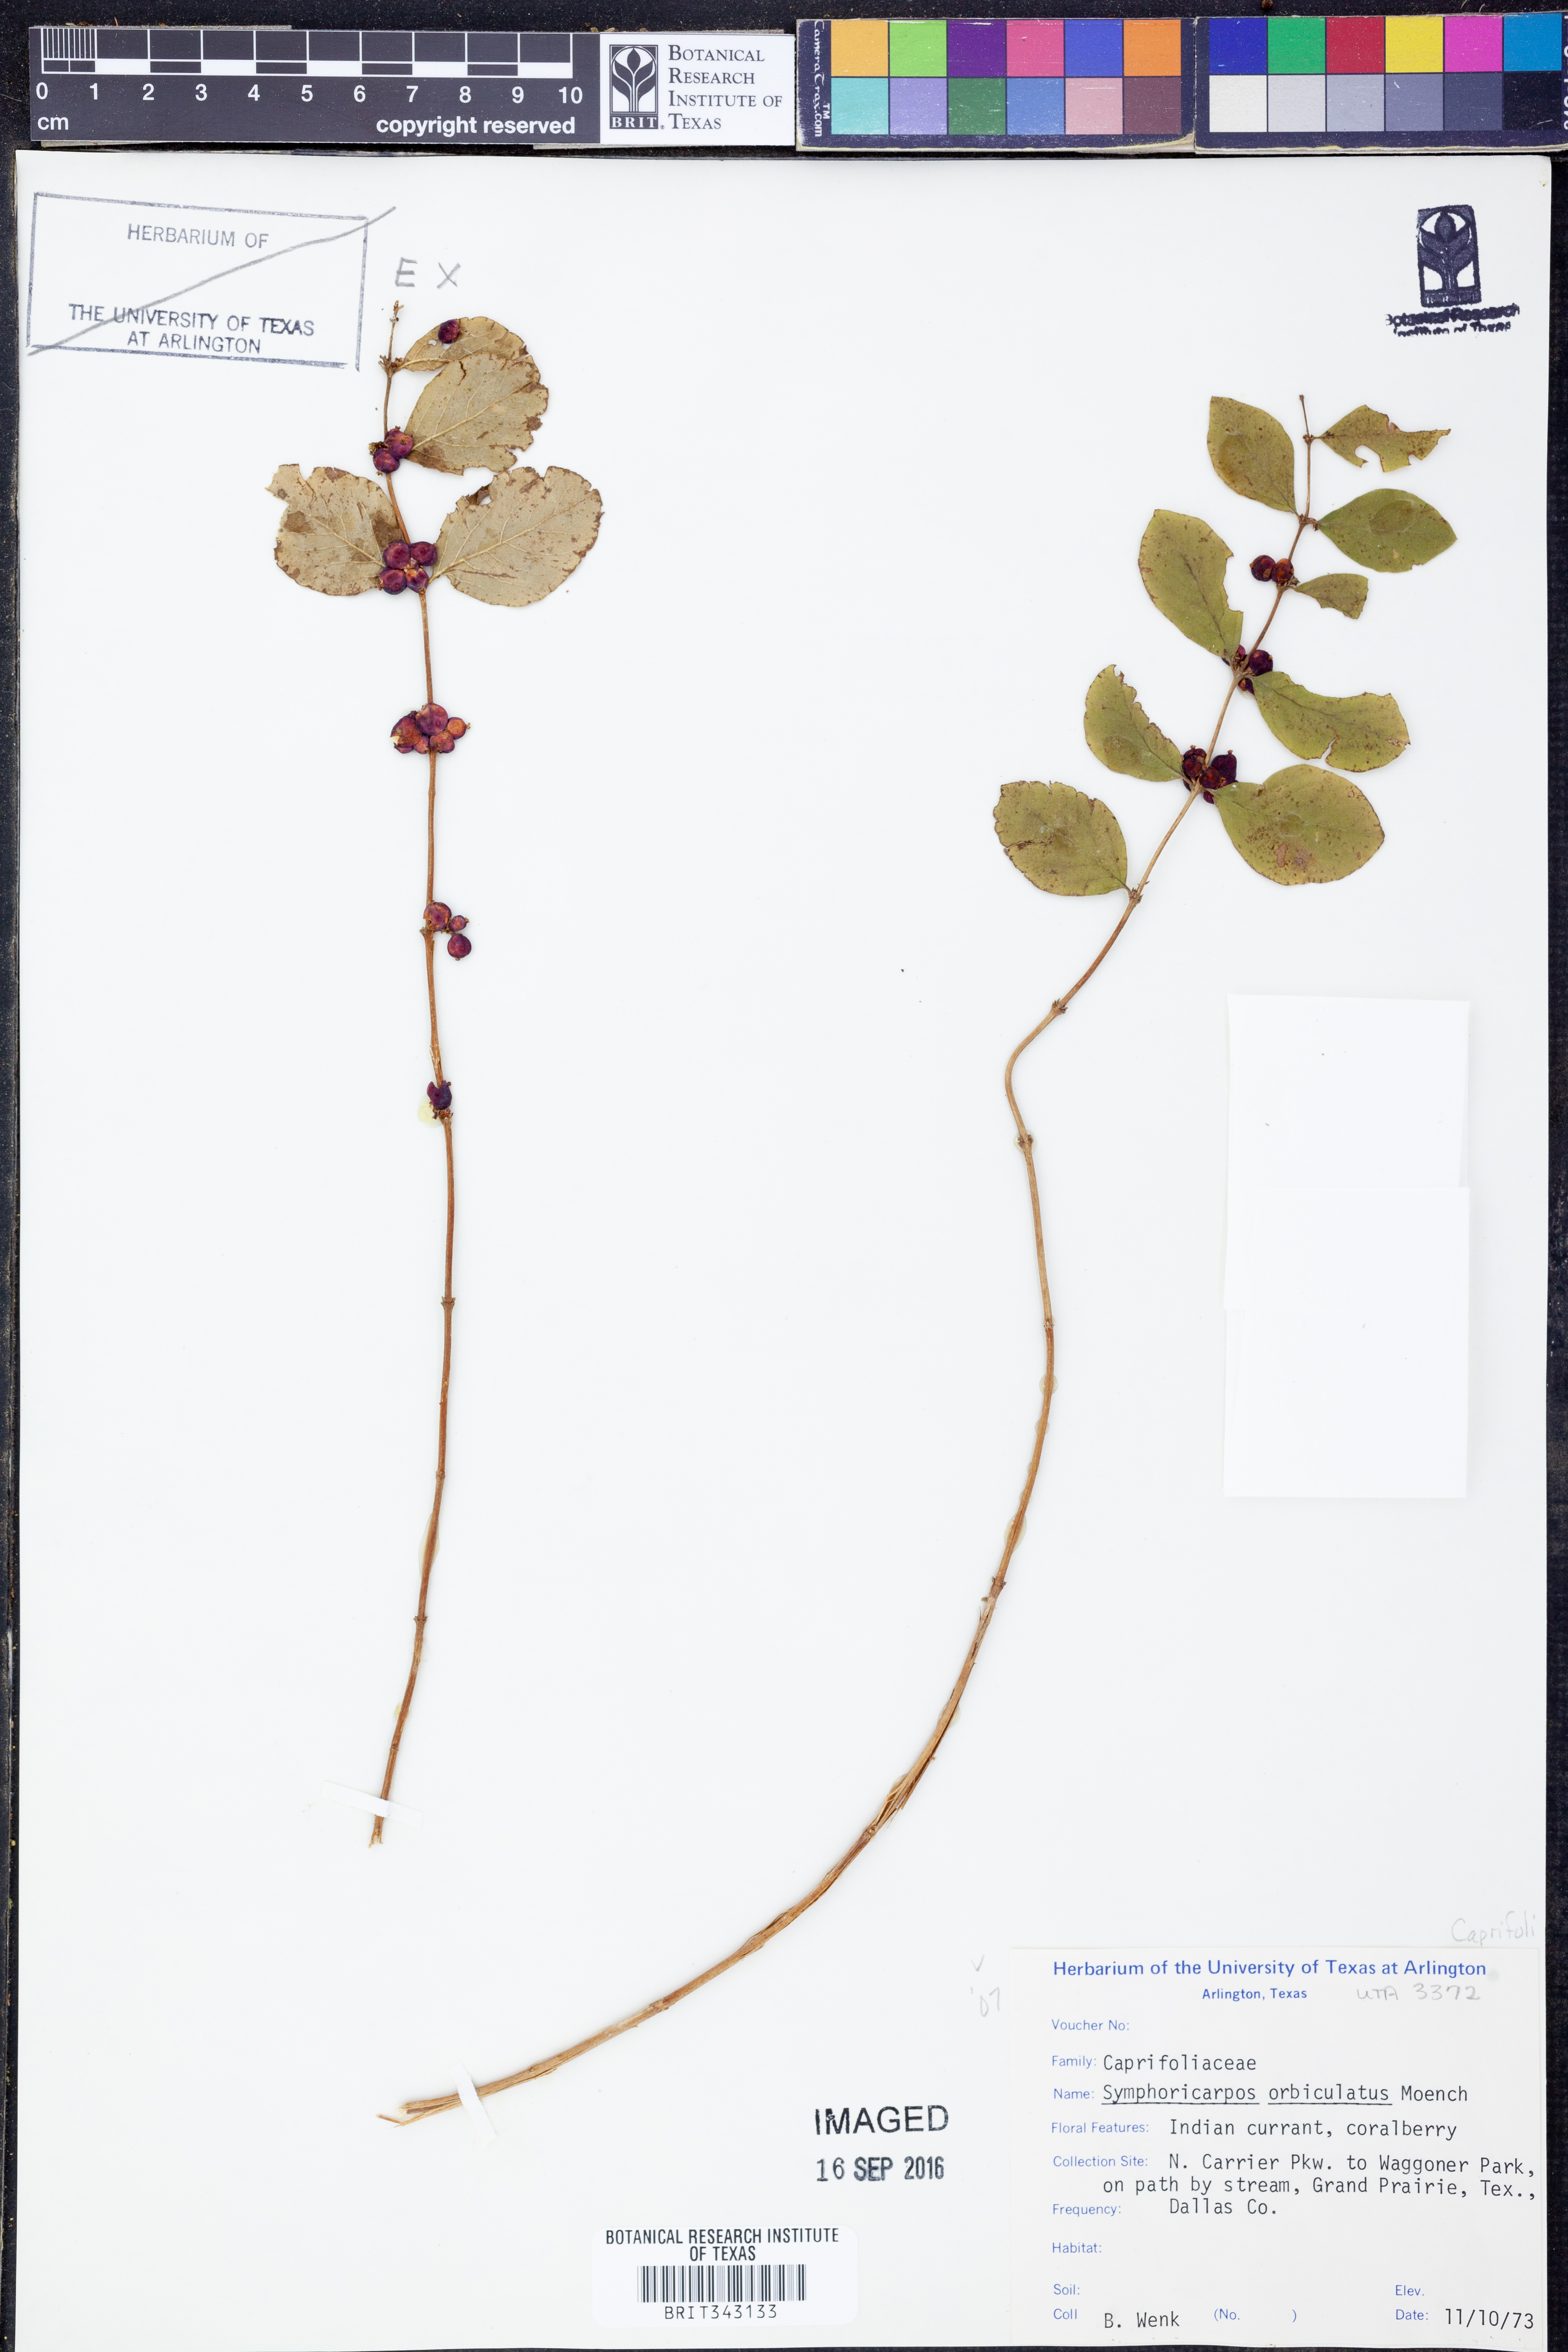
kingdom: Plantae
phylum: Tracheophyta
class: Magnoliopsida
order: Dipsacales
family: Caprifoliaceae
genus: Symphoricarpos
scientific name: Symphoricarpos orbiculatus
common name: Coralberry
